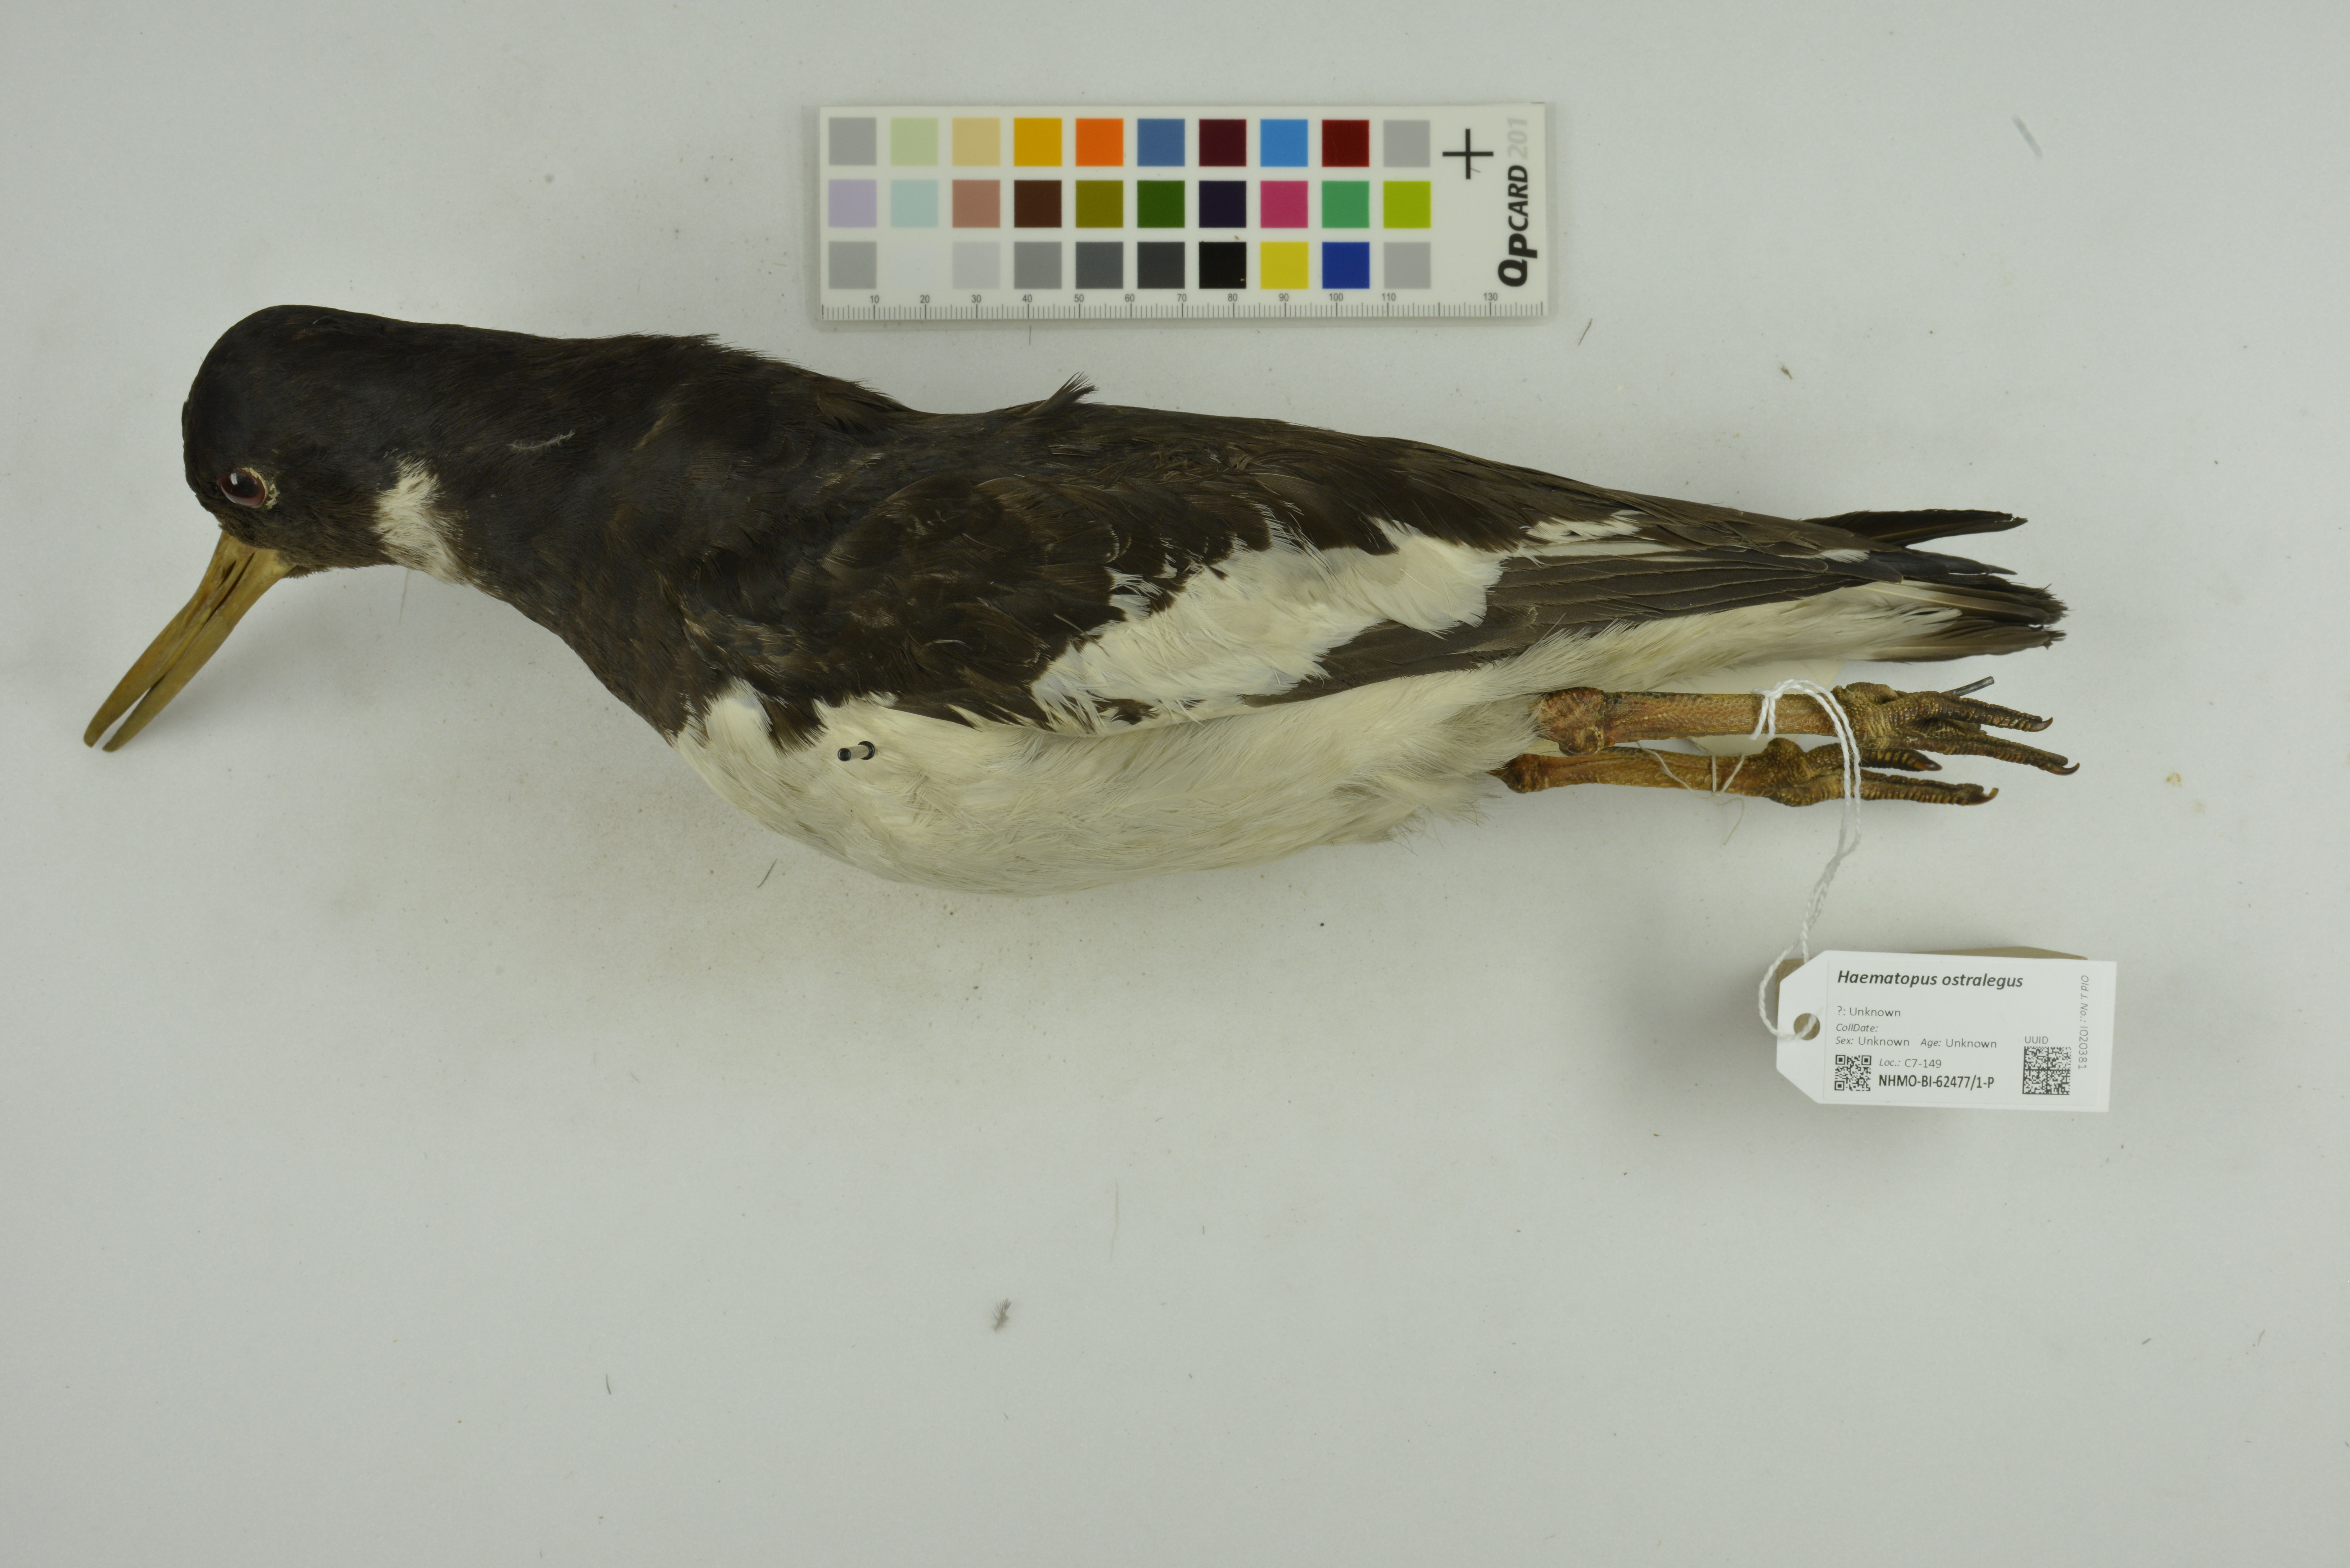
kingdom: Animalia
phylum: Chordata
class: Aves
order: Charadriiformes
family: Haematopodidae
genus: Haematopus
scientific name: Haematopus ostralegus
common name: Eurasian oystercatcher
